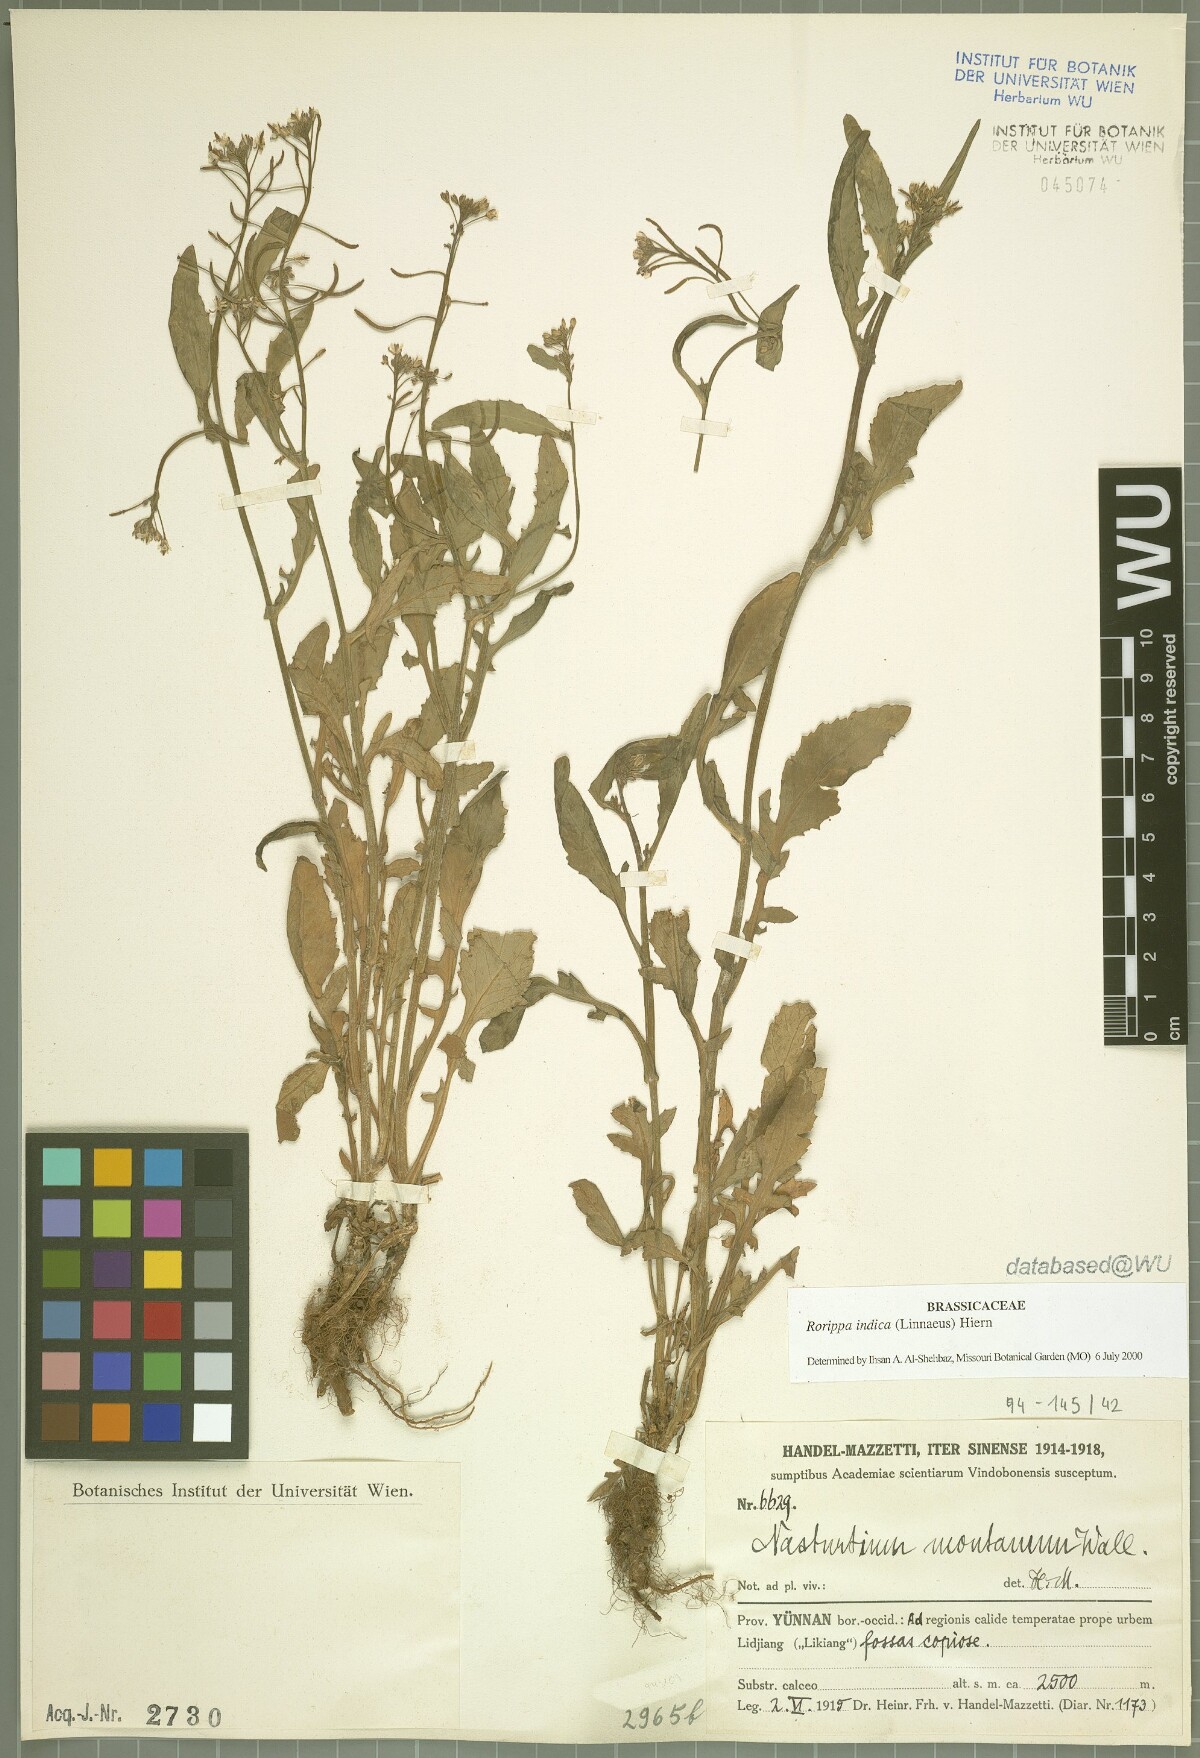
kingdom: Plantae
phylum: Tracheophyta
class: Magnoliopsida
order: Brassicales
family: Brassicaceae
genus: Rorippa
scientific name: Rorippa indica
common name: Variableleaf yellowcress
